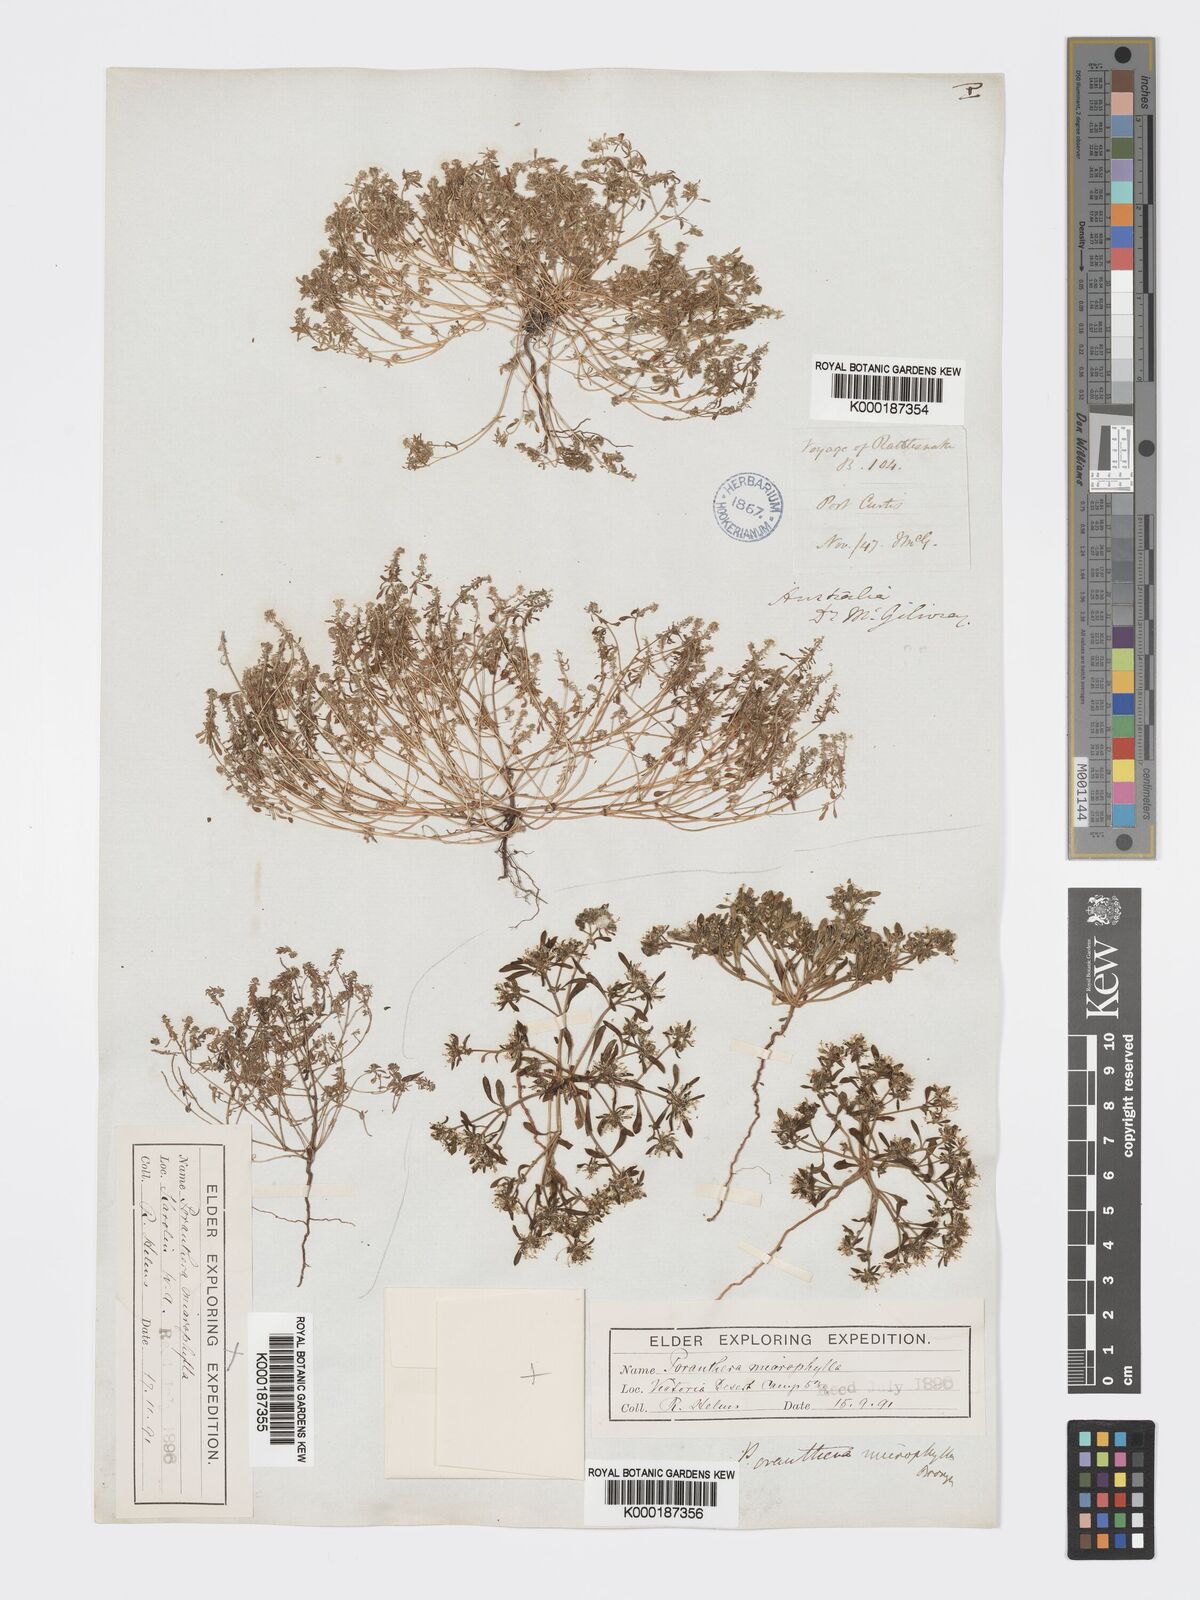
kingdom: Plantae
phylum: Tracheophyta
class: Magnoliopsida
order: Malpighiales
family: Phyllanthaceae
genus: Poranthera
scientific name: Poranthera microphylla
